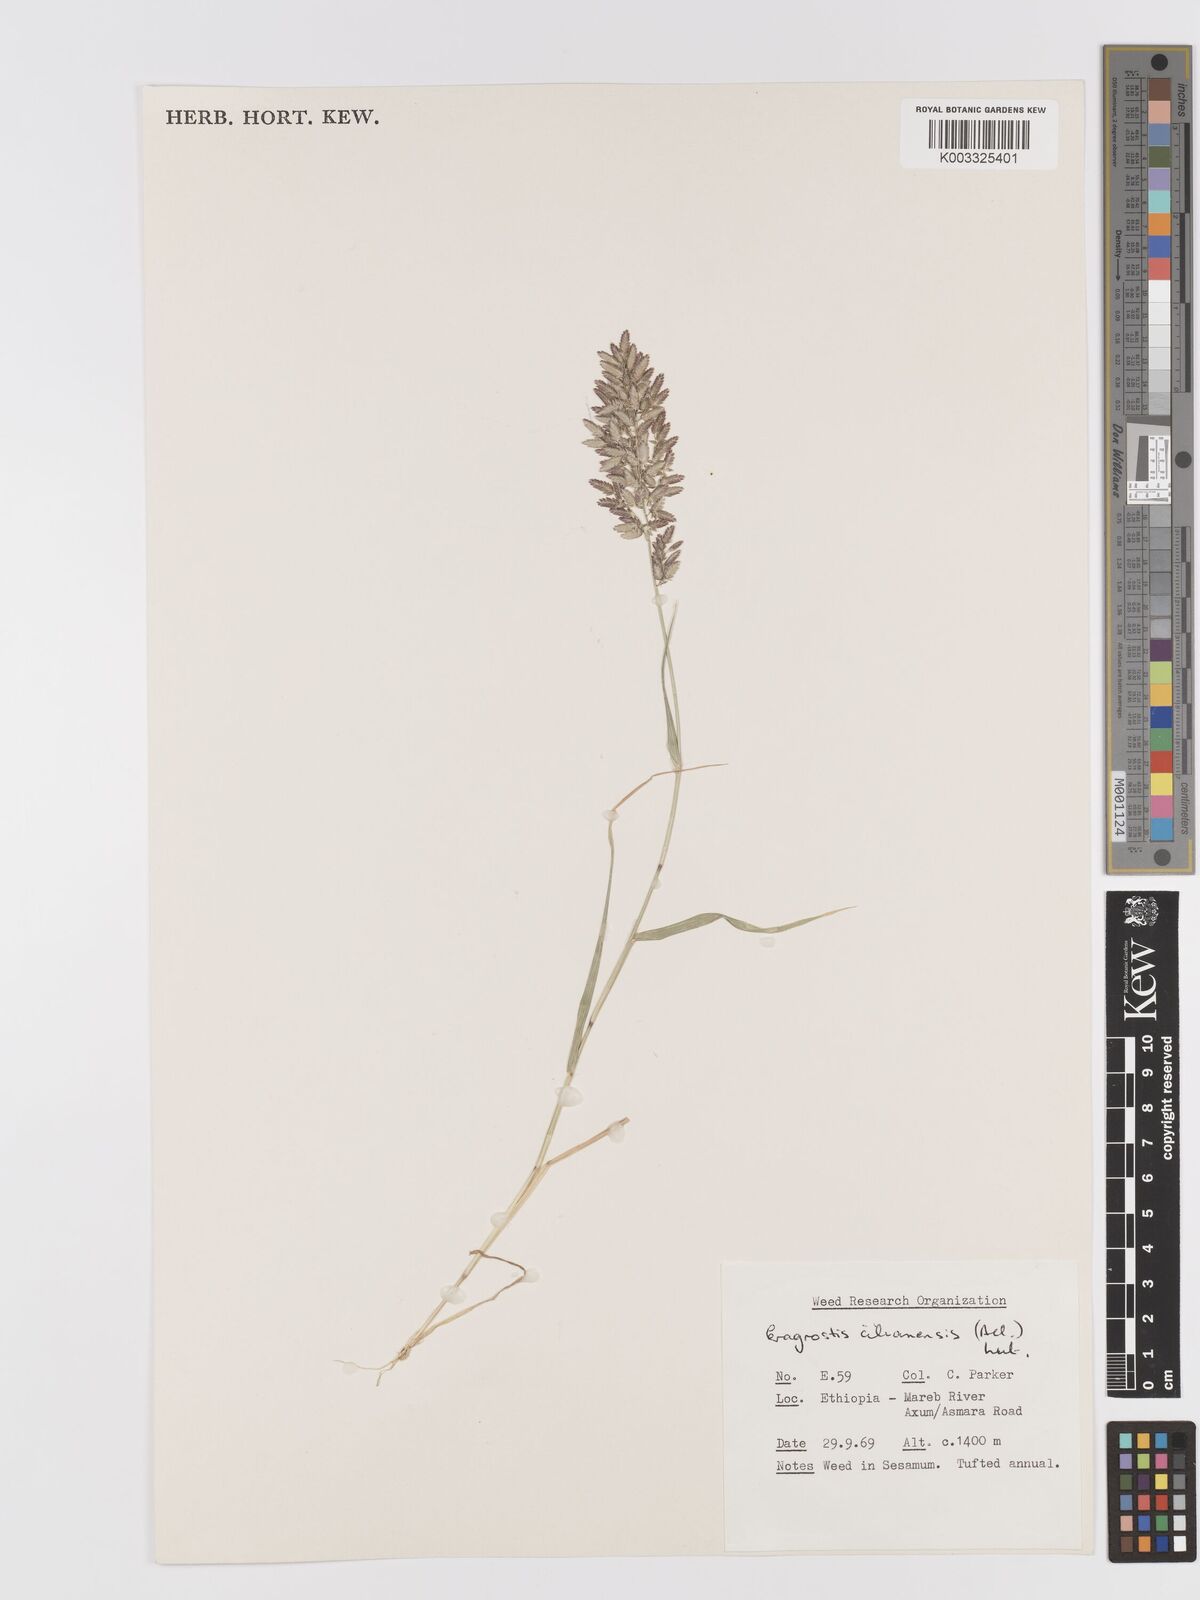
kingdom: Plantae
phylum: Tracheophyta
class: Liliopsida
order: Poales
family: Poaceae
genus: Eragrostis
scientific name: Eragrostis cilianensis
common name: Stinkgrass
